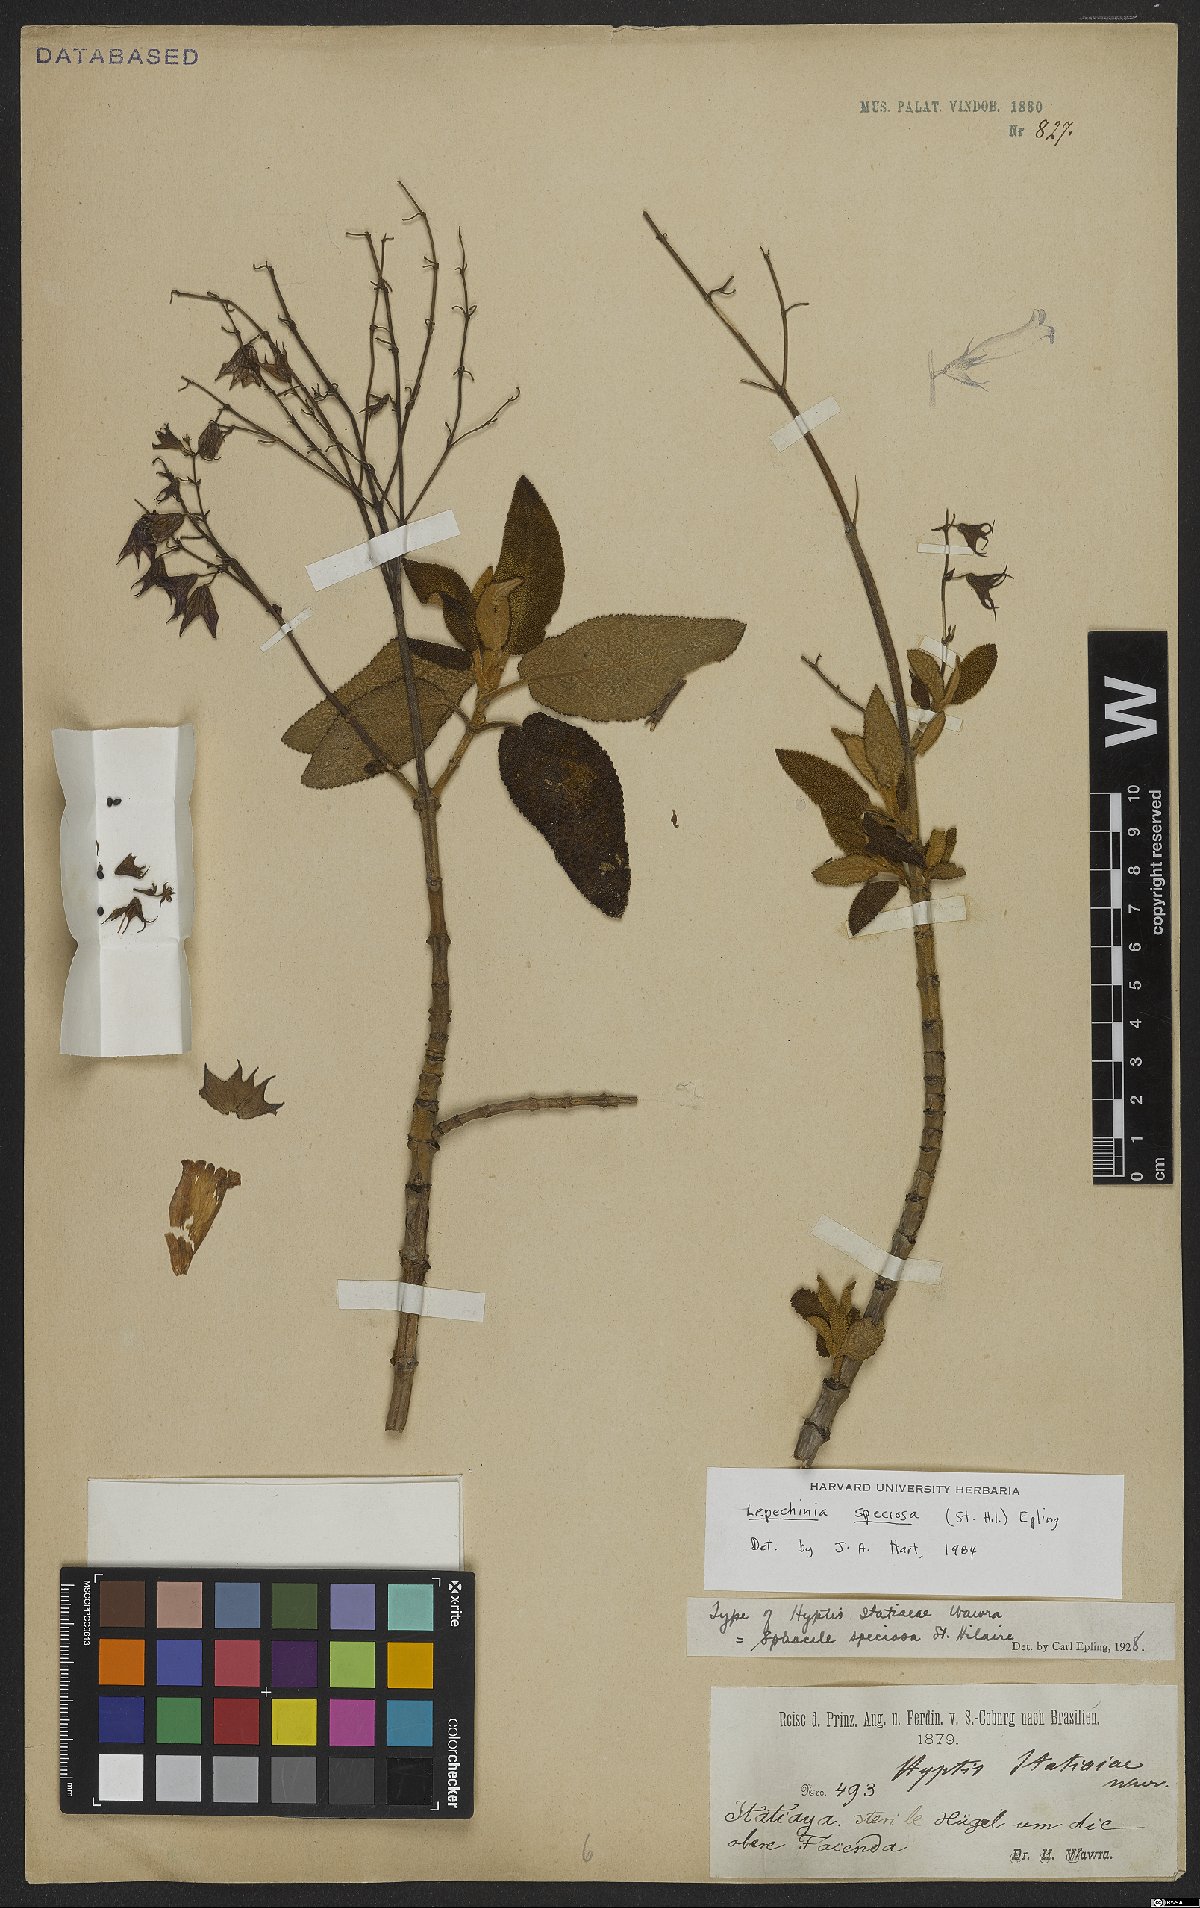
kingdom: Plantae
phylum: Tracheophyta
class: Magnoliopsida
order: Lamiales
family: Lamiaceae
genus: Lepechinia
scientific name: Lepechinia speciosa
